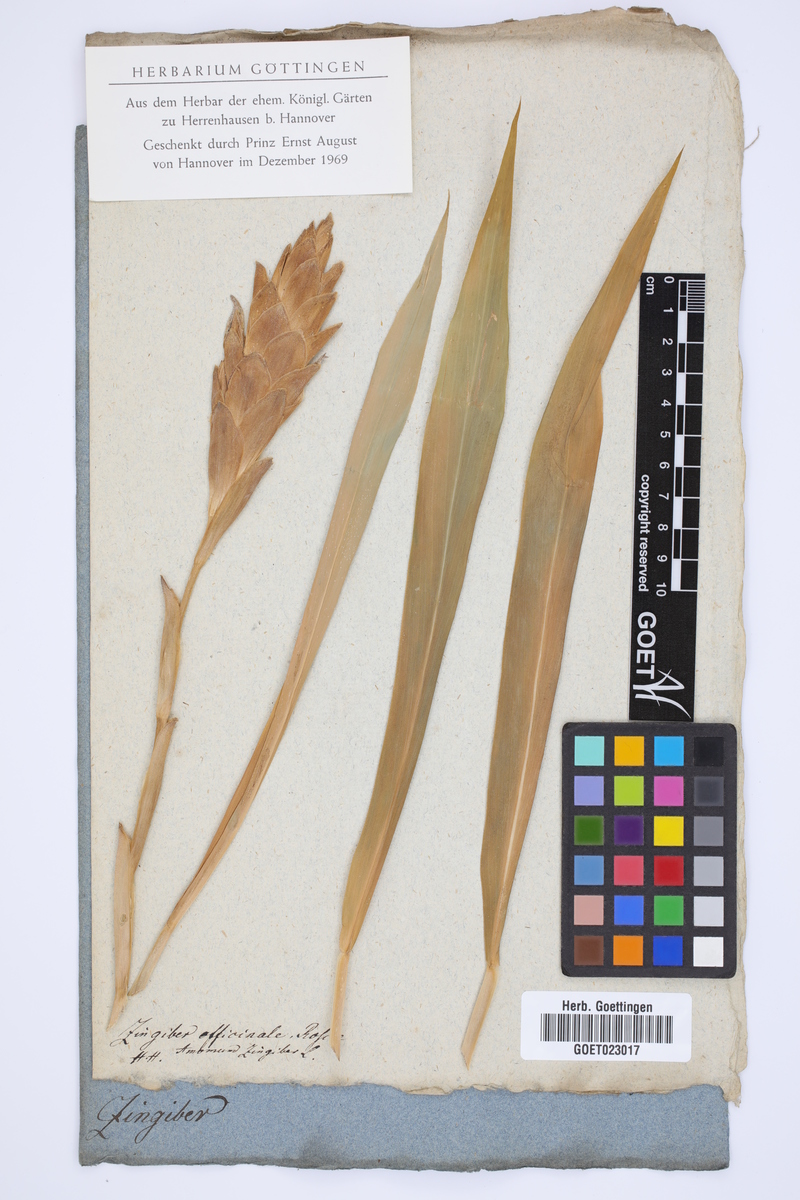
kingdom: Plantae
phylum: Tracheophyta
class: Liliopsida
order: Zingiberales
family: Zingiberaceae
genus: Zingiber
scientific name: Zingiber officinale
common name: Ginger
